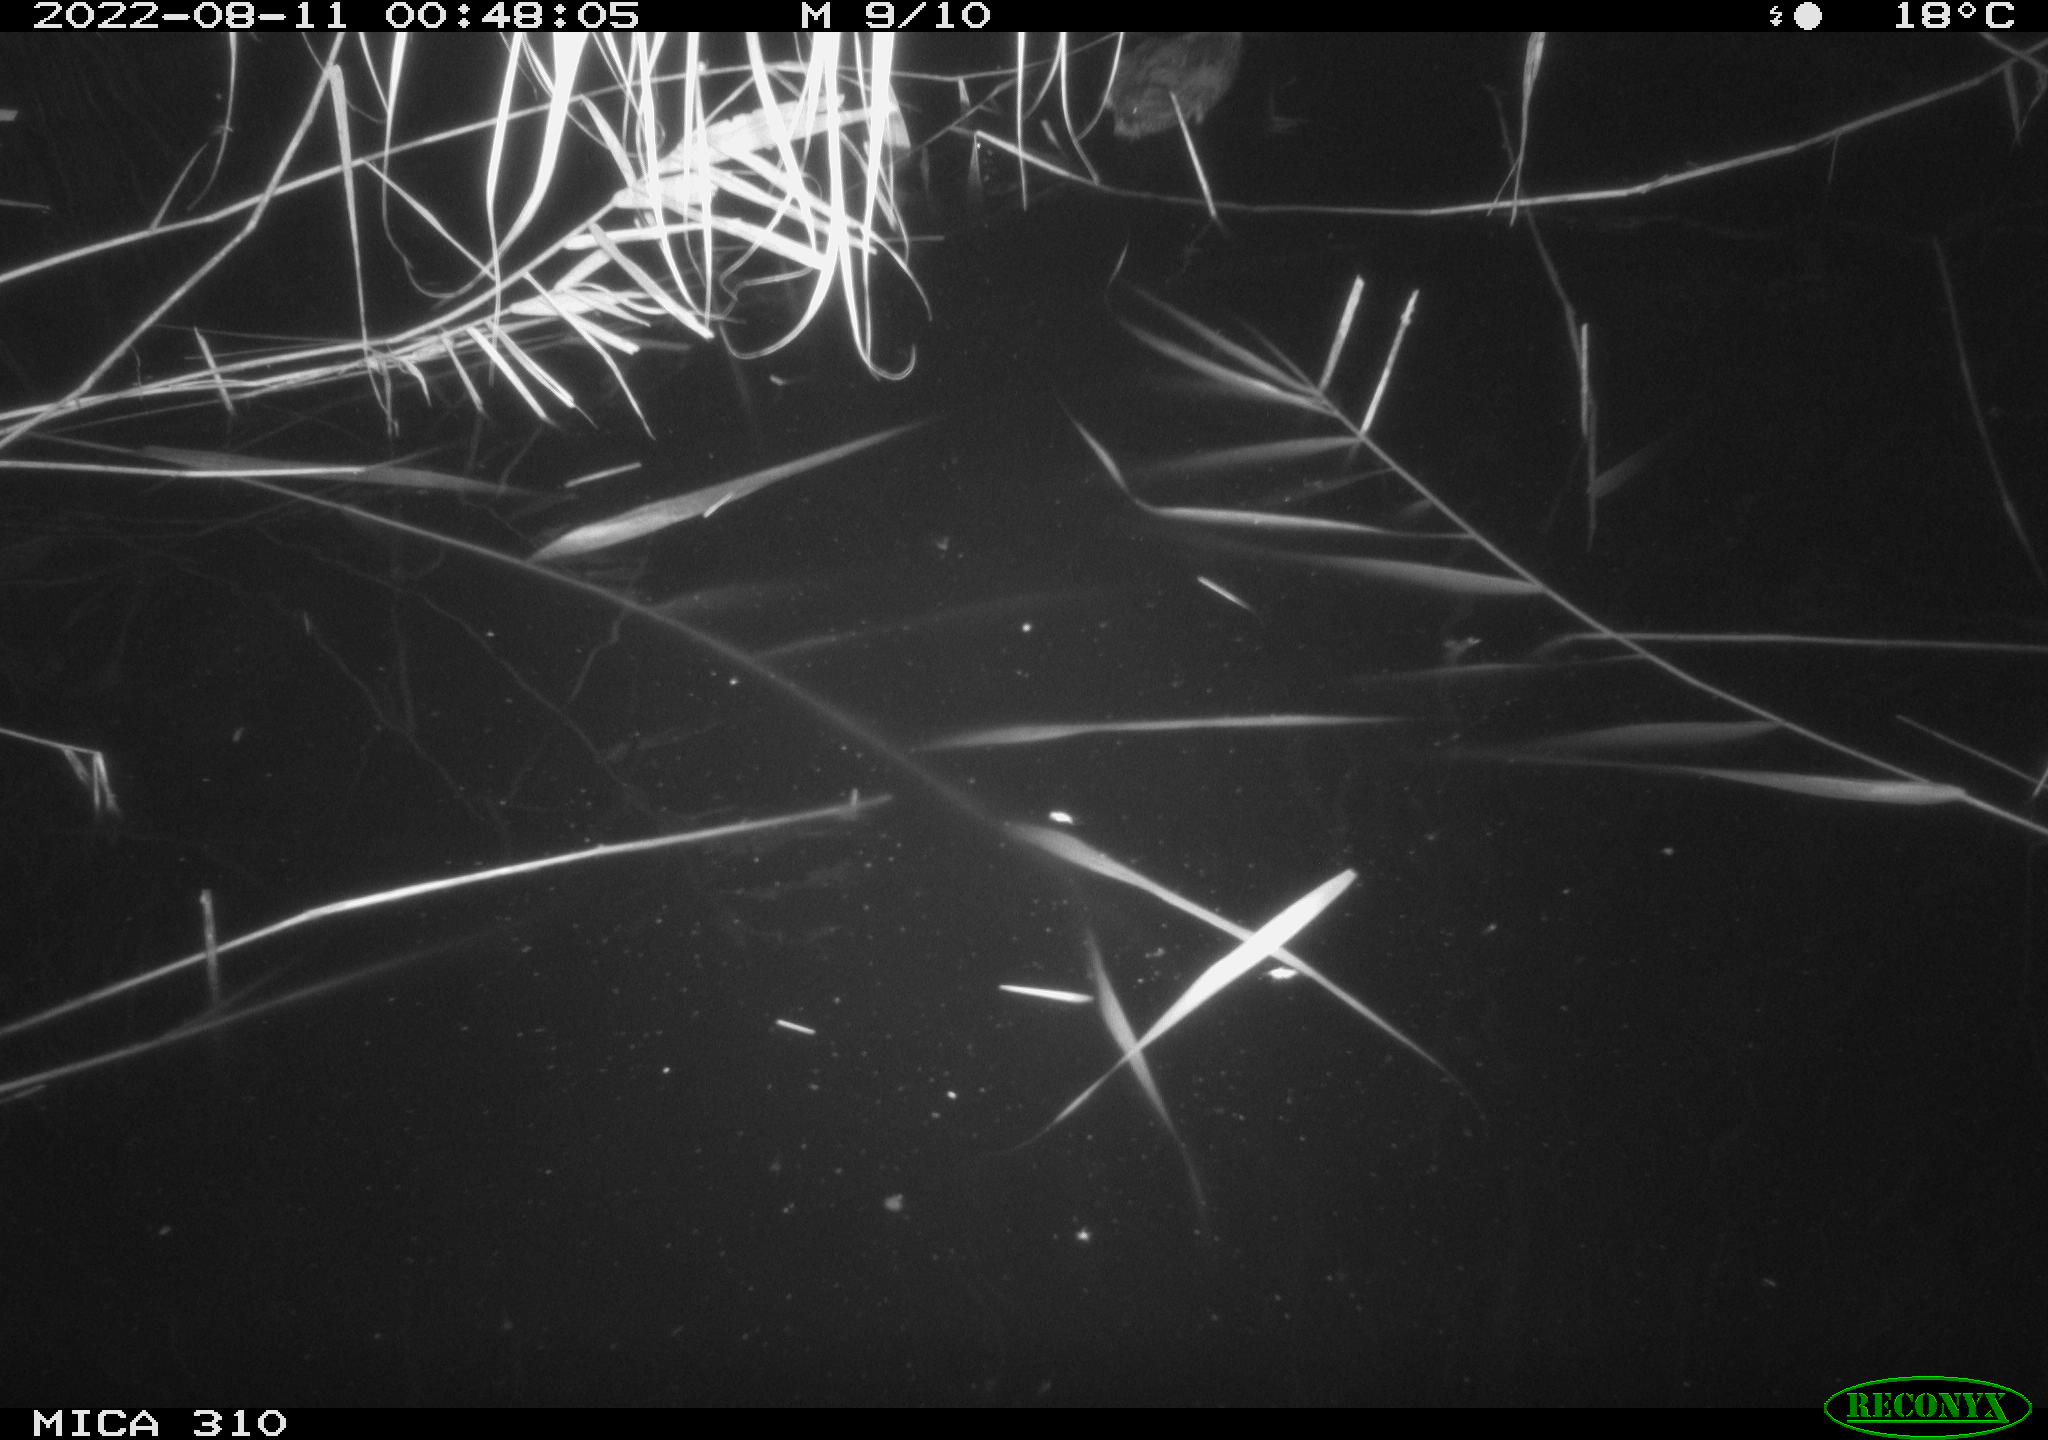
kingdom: Animalia
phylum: Chordata
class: Aves
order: Gruiformes
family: Rallidae
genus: Fulica
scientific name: Fulica atra
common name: Eurasian coot
